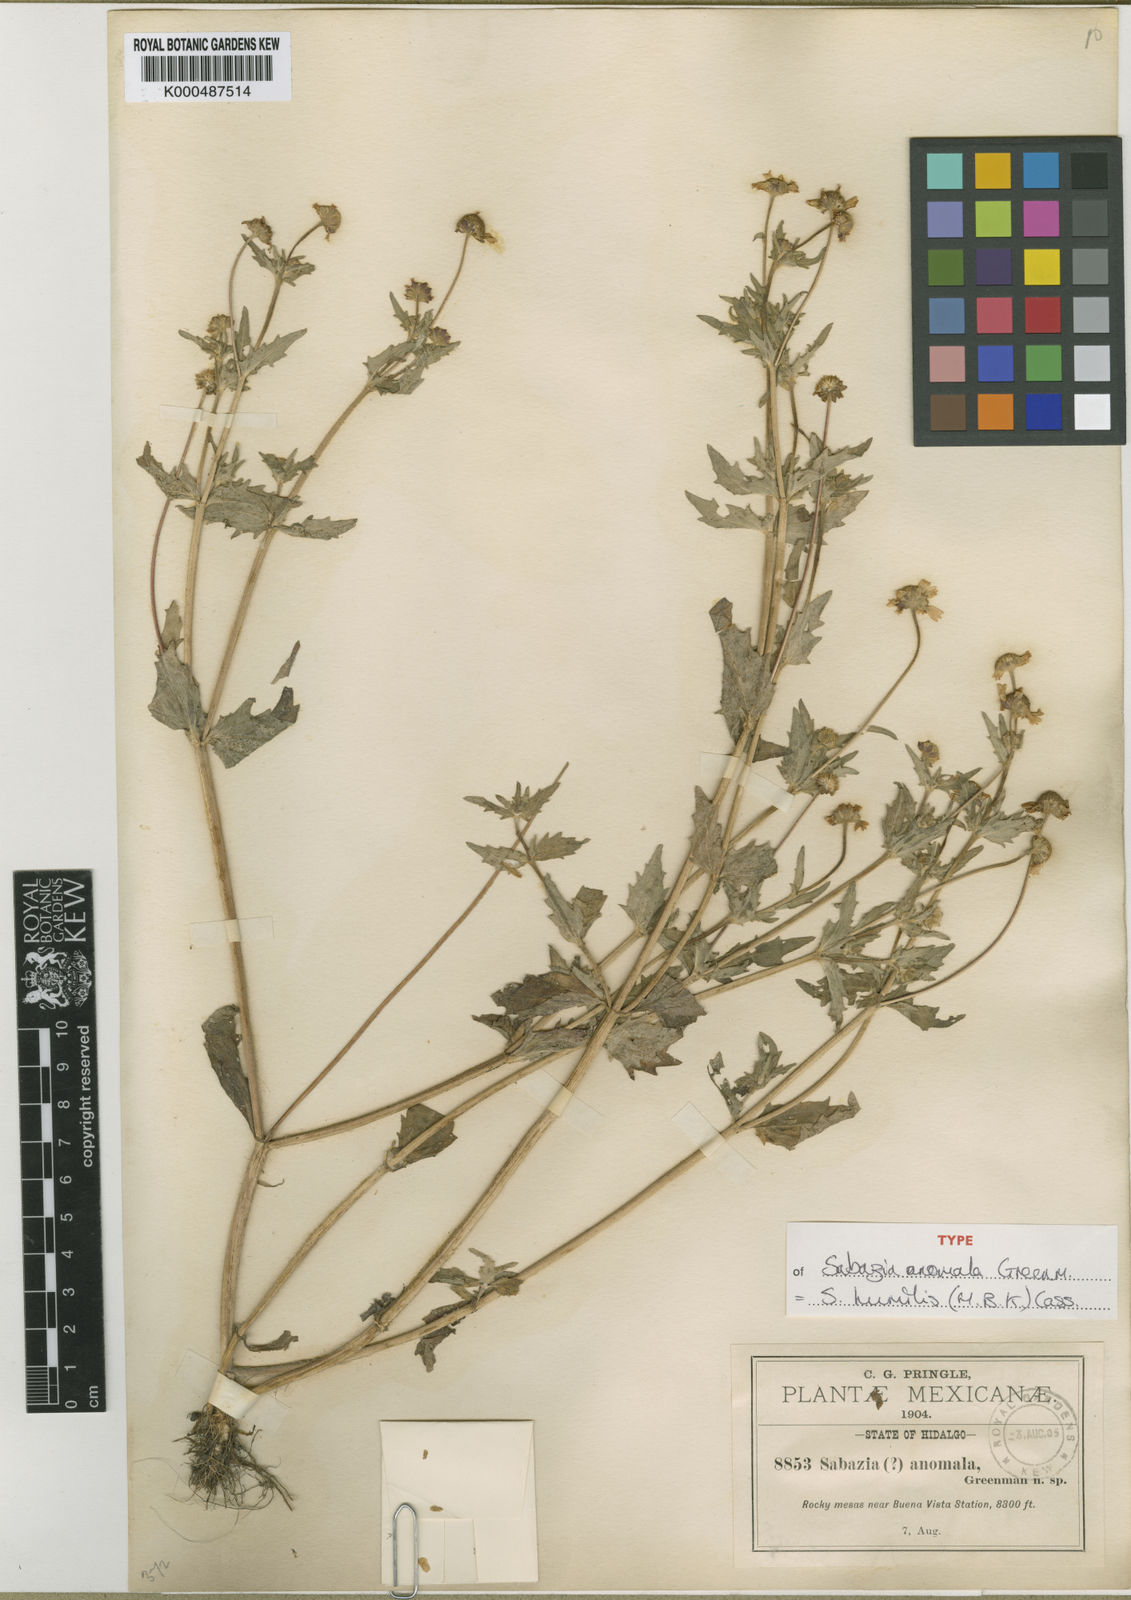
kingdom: Plantae
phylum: Tracheophyta
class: Magnoliopsida
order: Asterales
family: Asteraceae
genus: Sabazia
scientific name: Sabazia humilis
